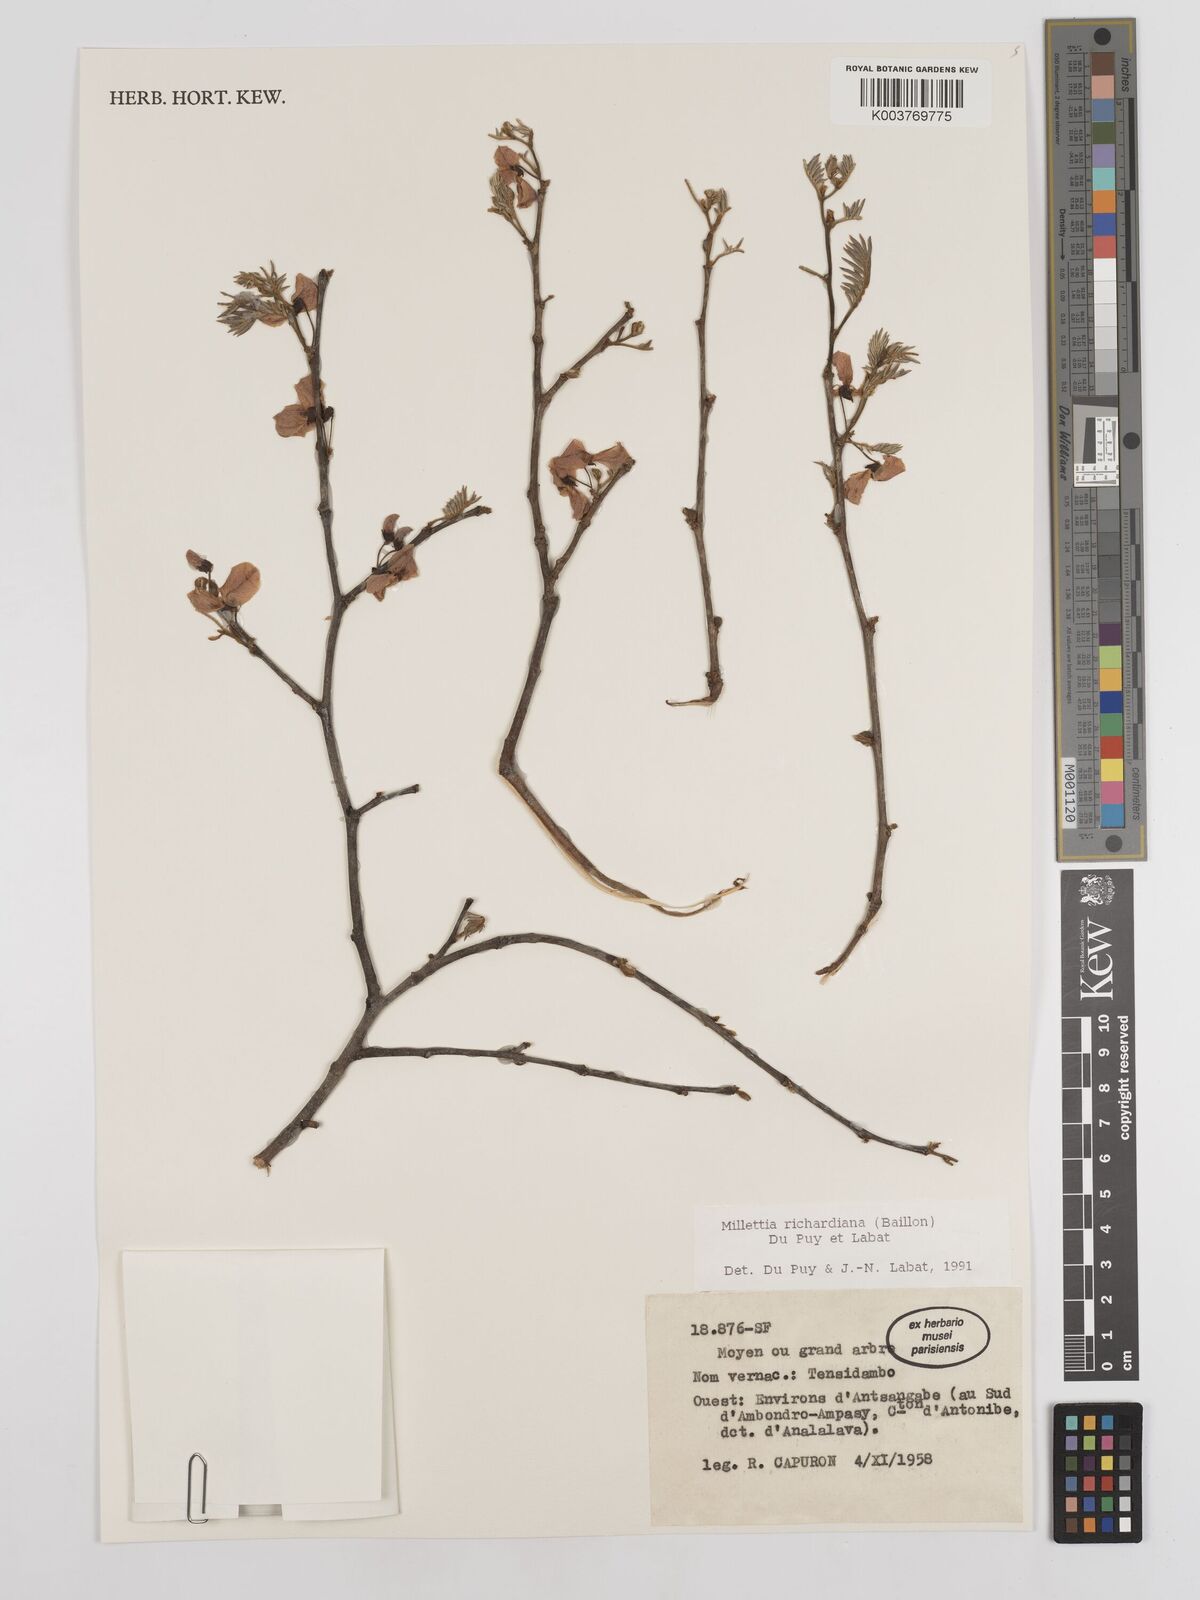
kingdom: Plantae
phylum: Tracheophyta
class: Magnoliopsida
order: Fabales
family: Fabaceae
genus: Millettia
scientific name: Millettia richardiana
